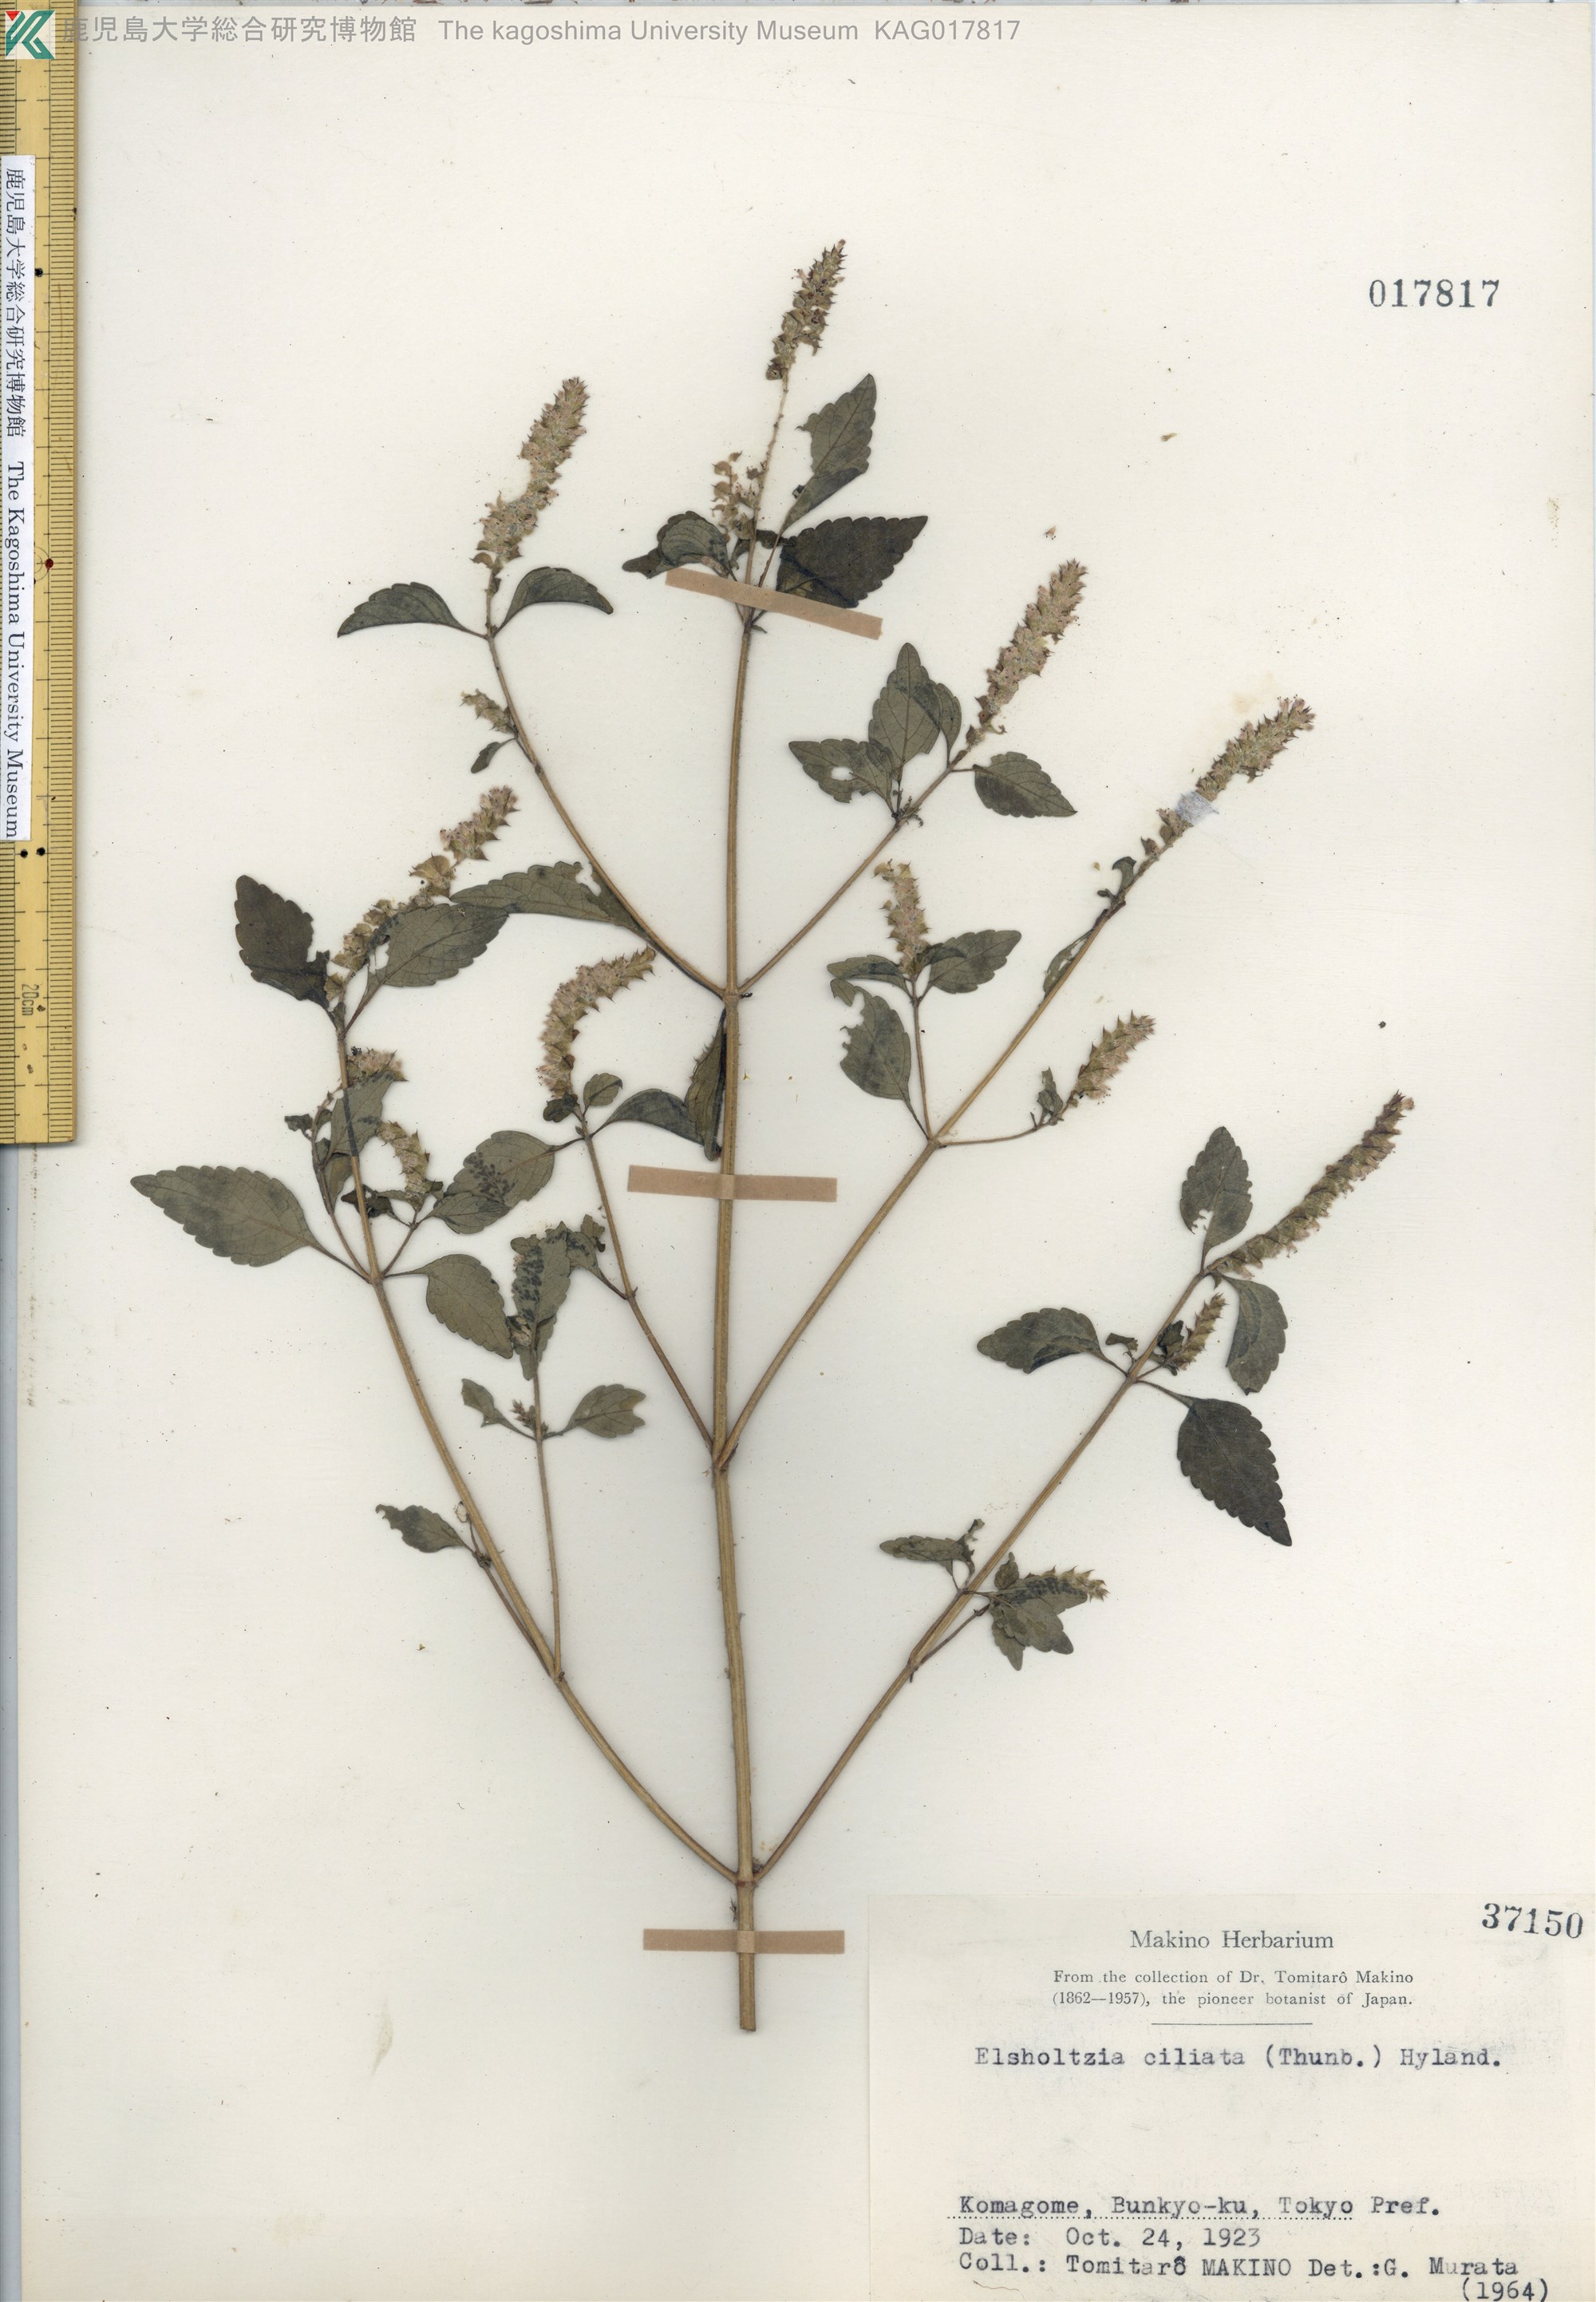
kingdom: Plantae
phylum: Tracheophyta
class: Magnoliopsida
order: Lamiales
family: Lamiaceae
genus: Elsholtzia
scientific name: Elsholtzia ciliata
